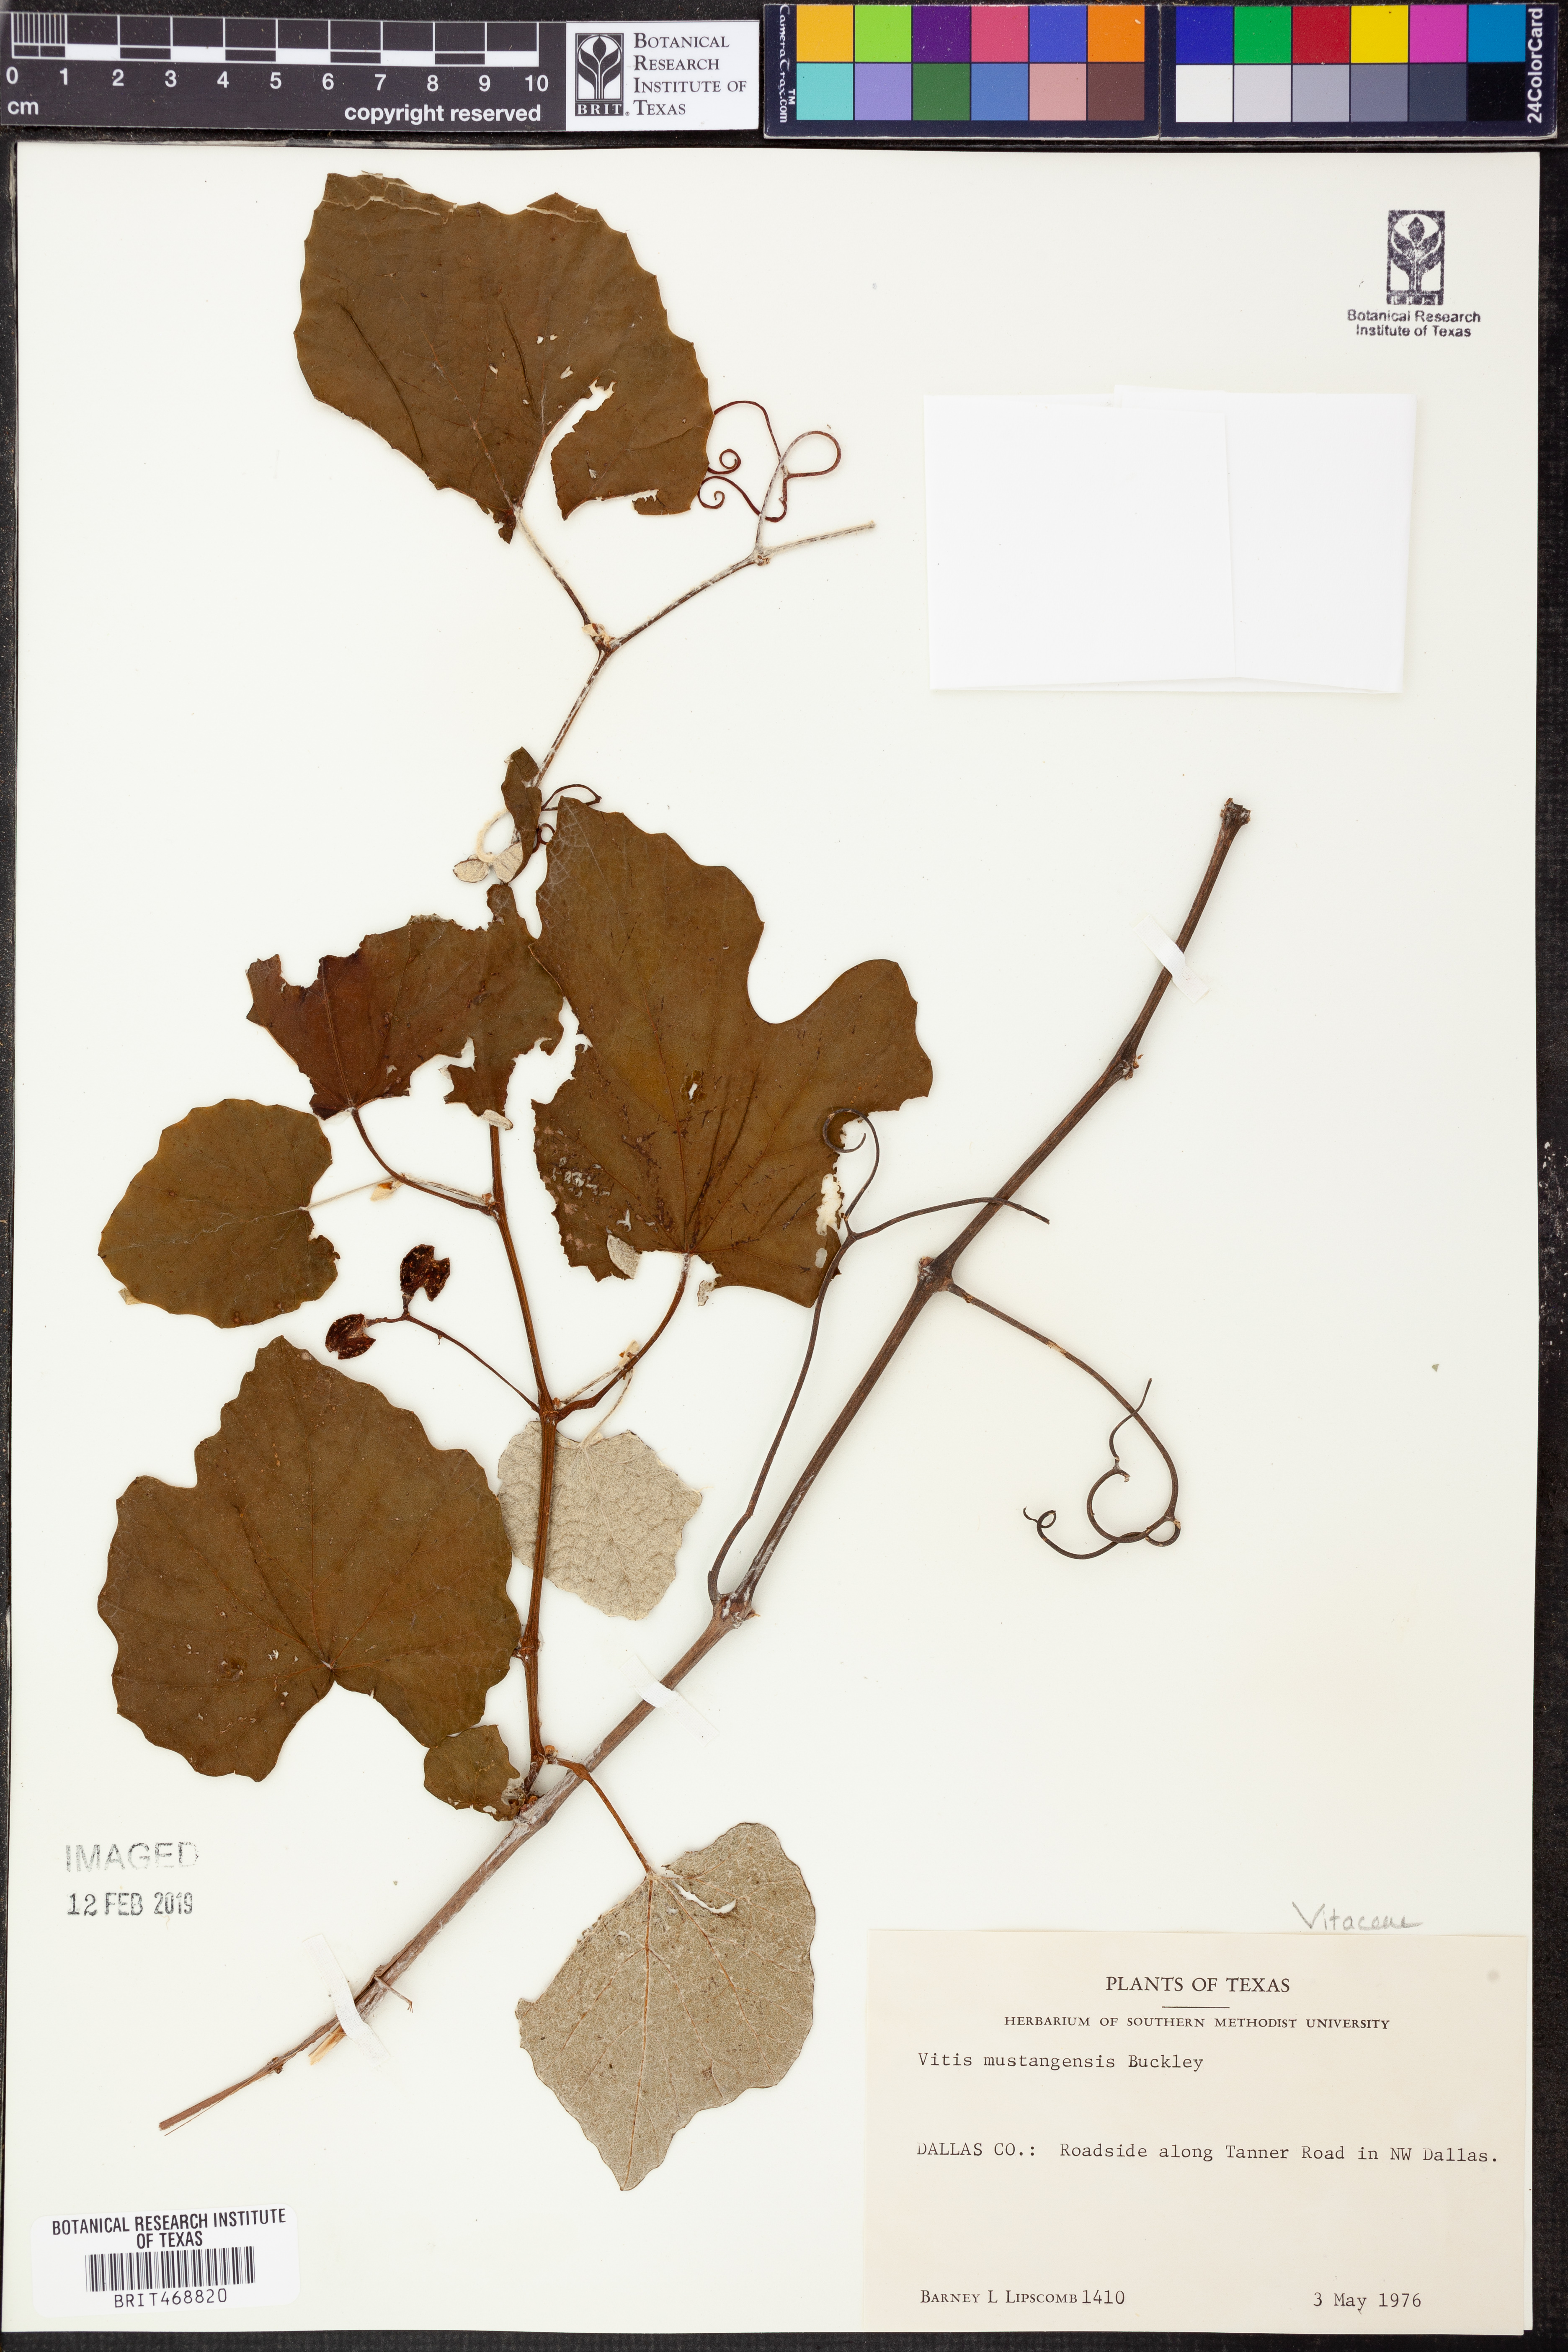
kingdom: Plantae
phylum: Tracheophyta
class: Magnoliopsida
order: Vitales
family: Vitaceae
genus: Vitis
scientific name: Vitis mustangensis
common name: Mustang grape
